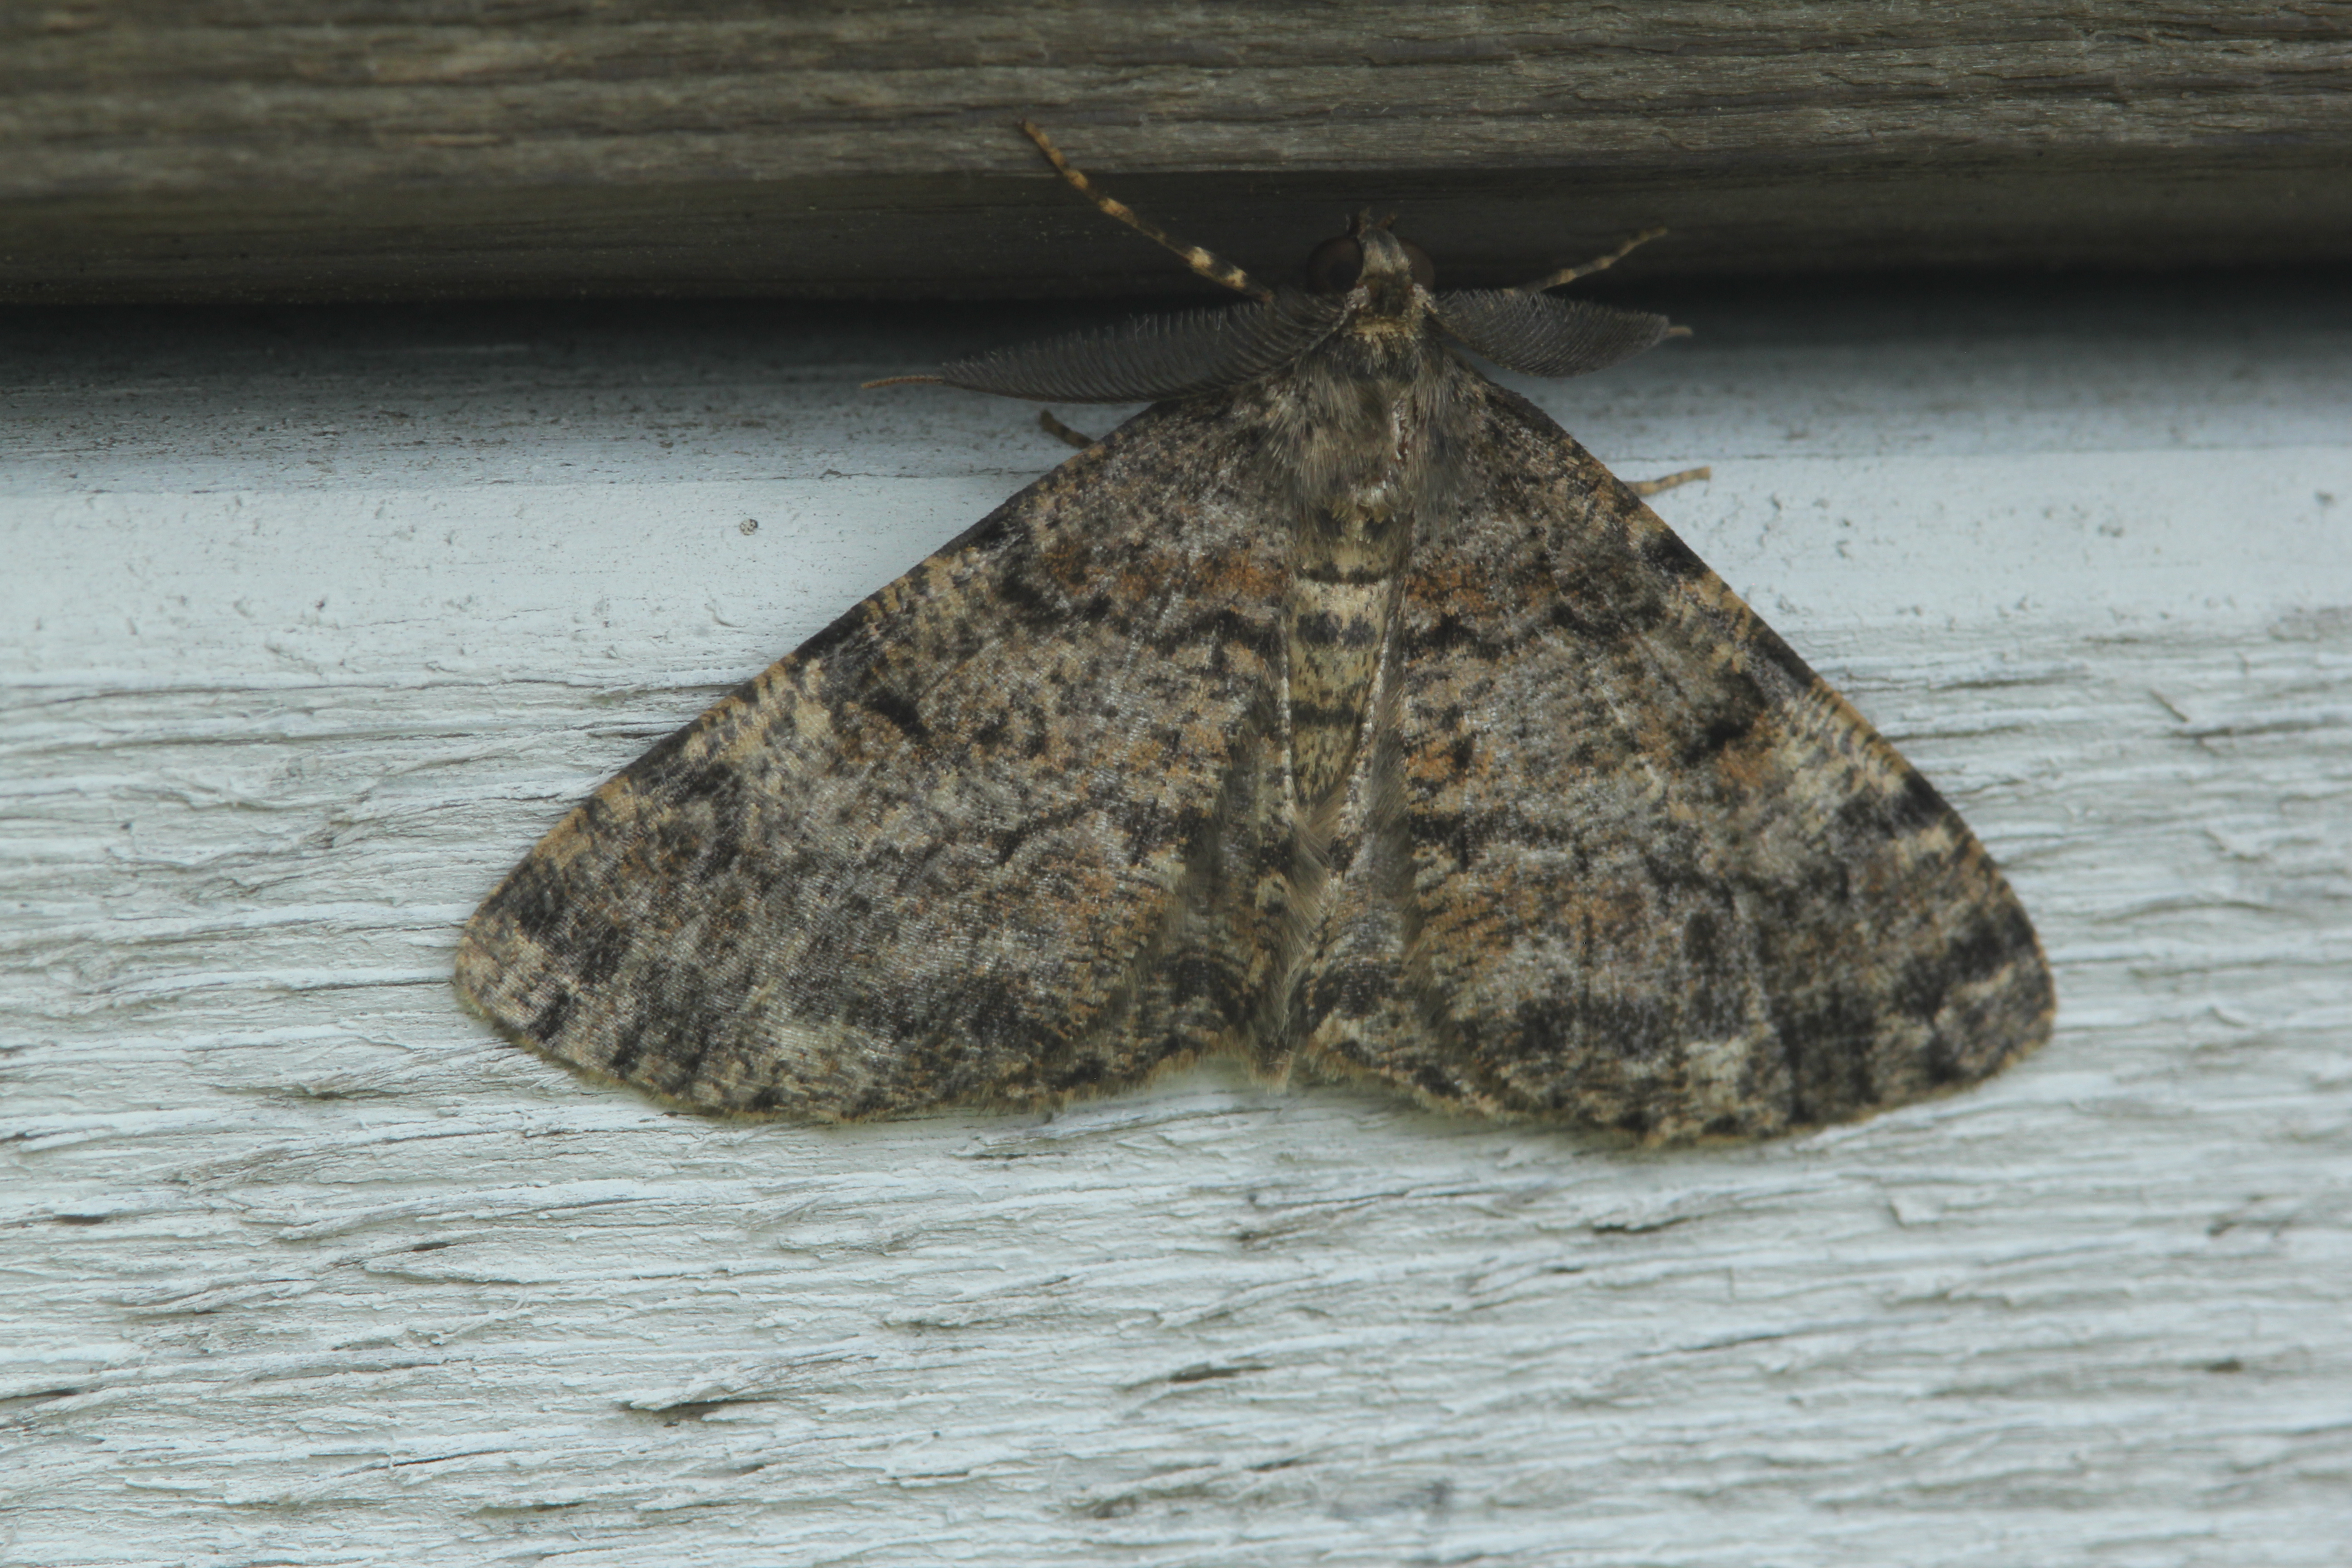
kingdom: Animalia
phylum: Arthropoda
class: Insecta
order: Lepidoptera
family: Geometridae
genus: Deileptenia
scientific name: Deileptenia ribeata
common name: Satin beauty
